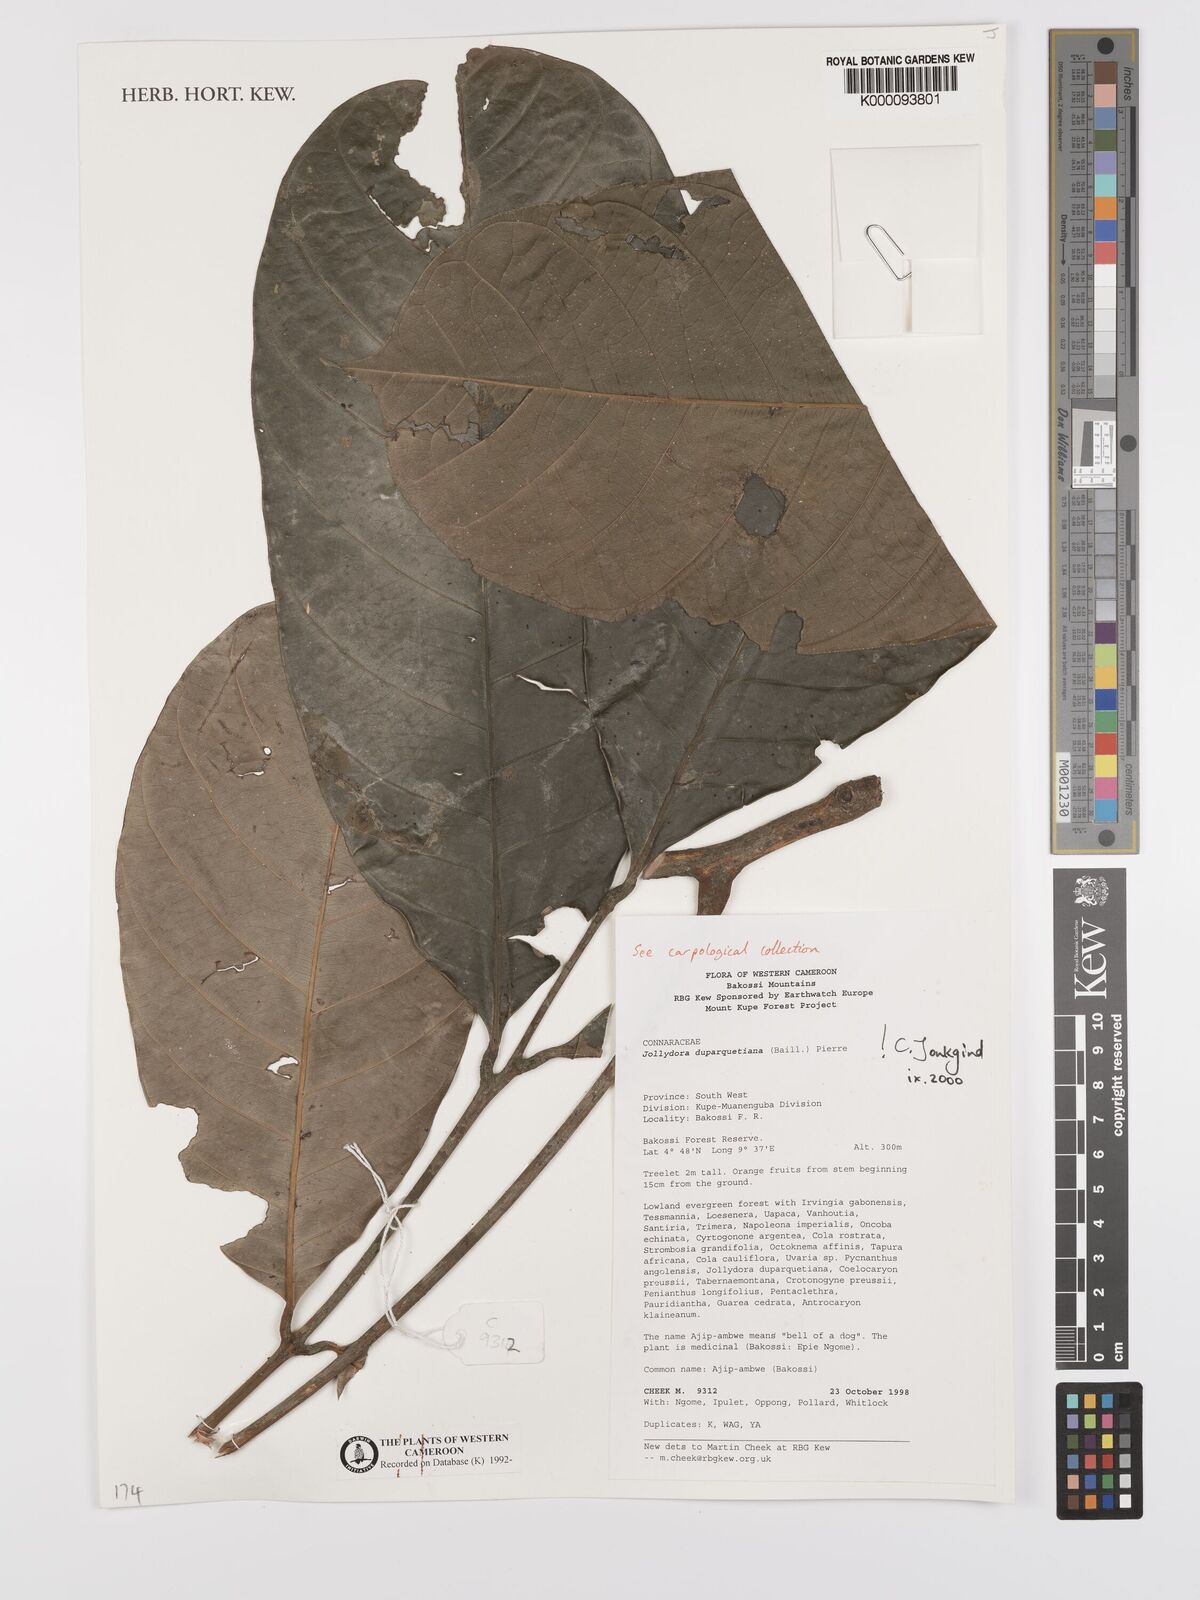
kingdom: Plantae
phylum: Tracheophyta
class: Magnoliopsida
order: Oxalidales
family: Connaraceae
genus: Jollydora
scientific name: Jollydora duparquetiana
